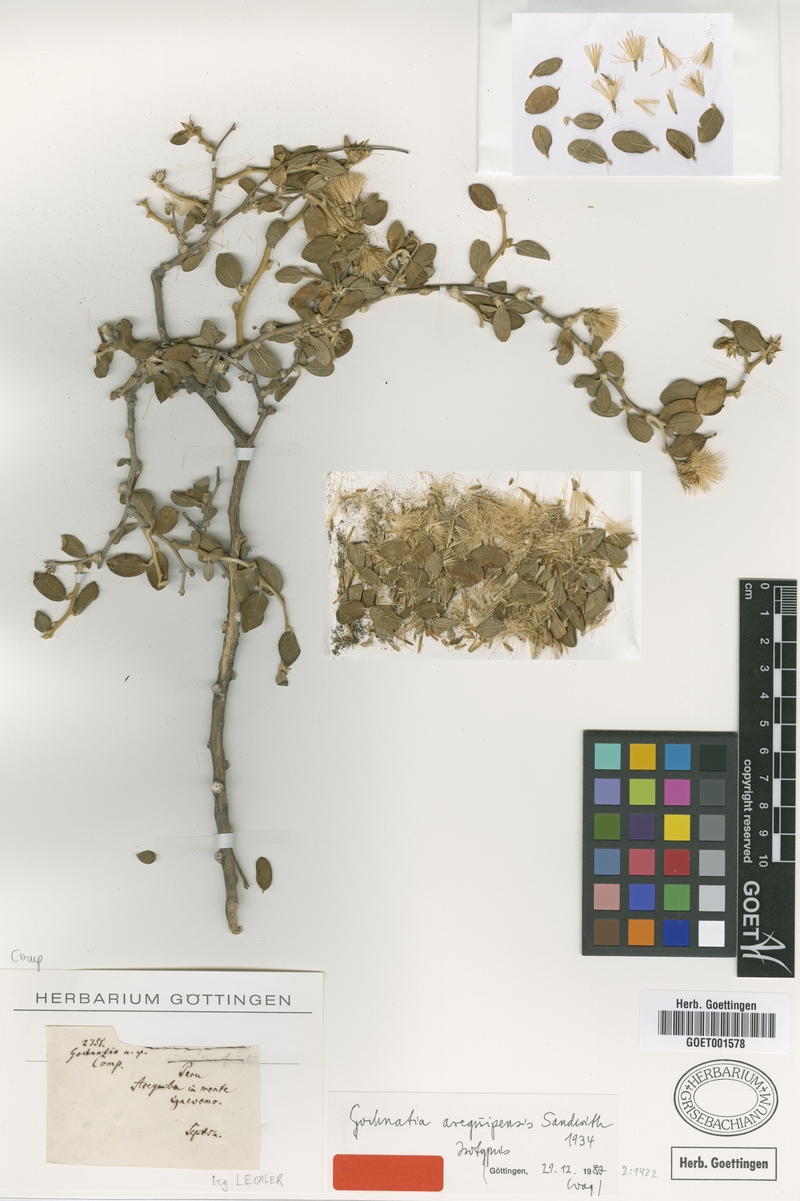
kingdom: Plantae
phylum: Tracheophyta
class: Magnoliopsida
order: Asterales
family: Asteraceae
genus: Gochnatia
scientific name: Gochnatia arequipensis
